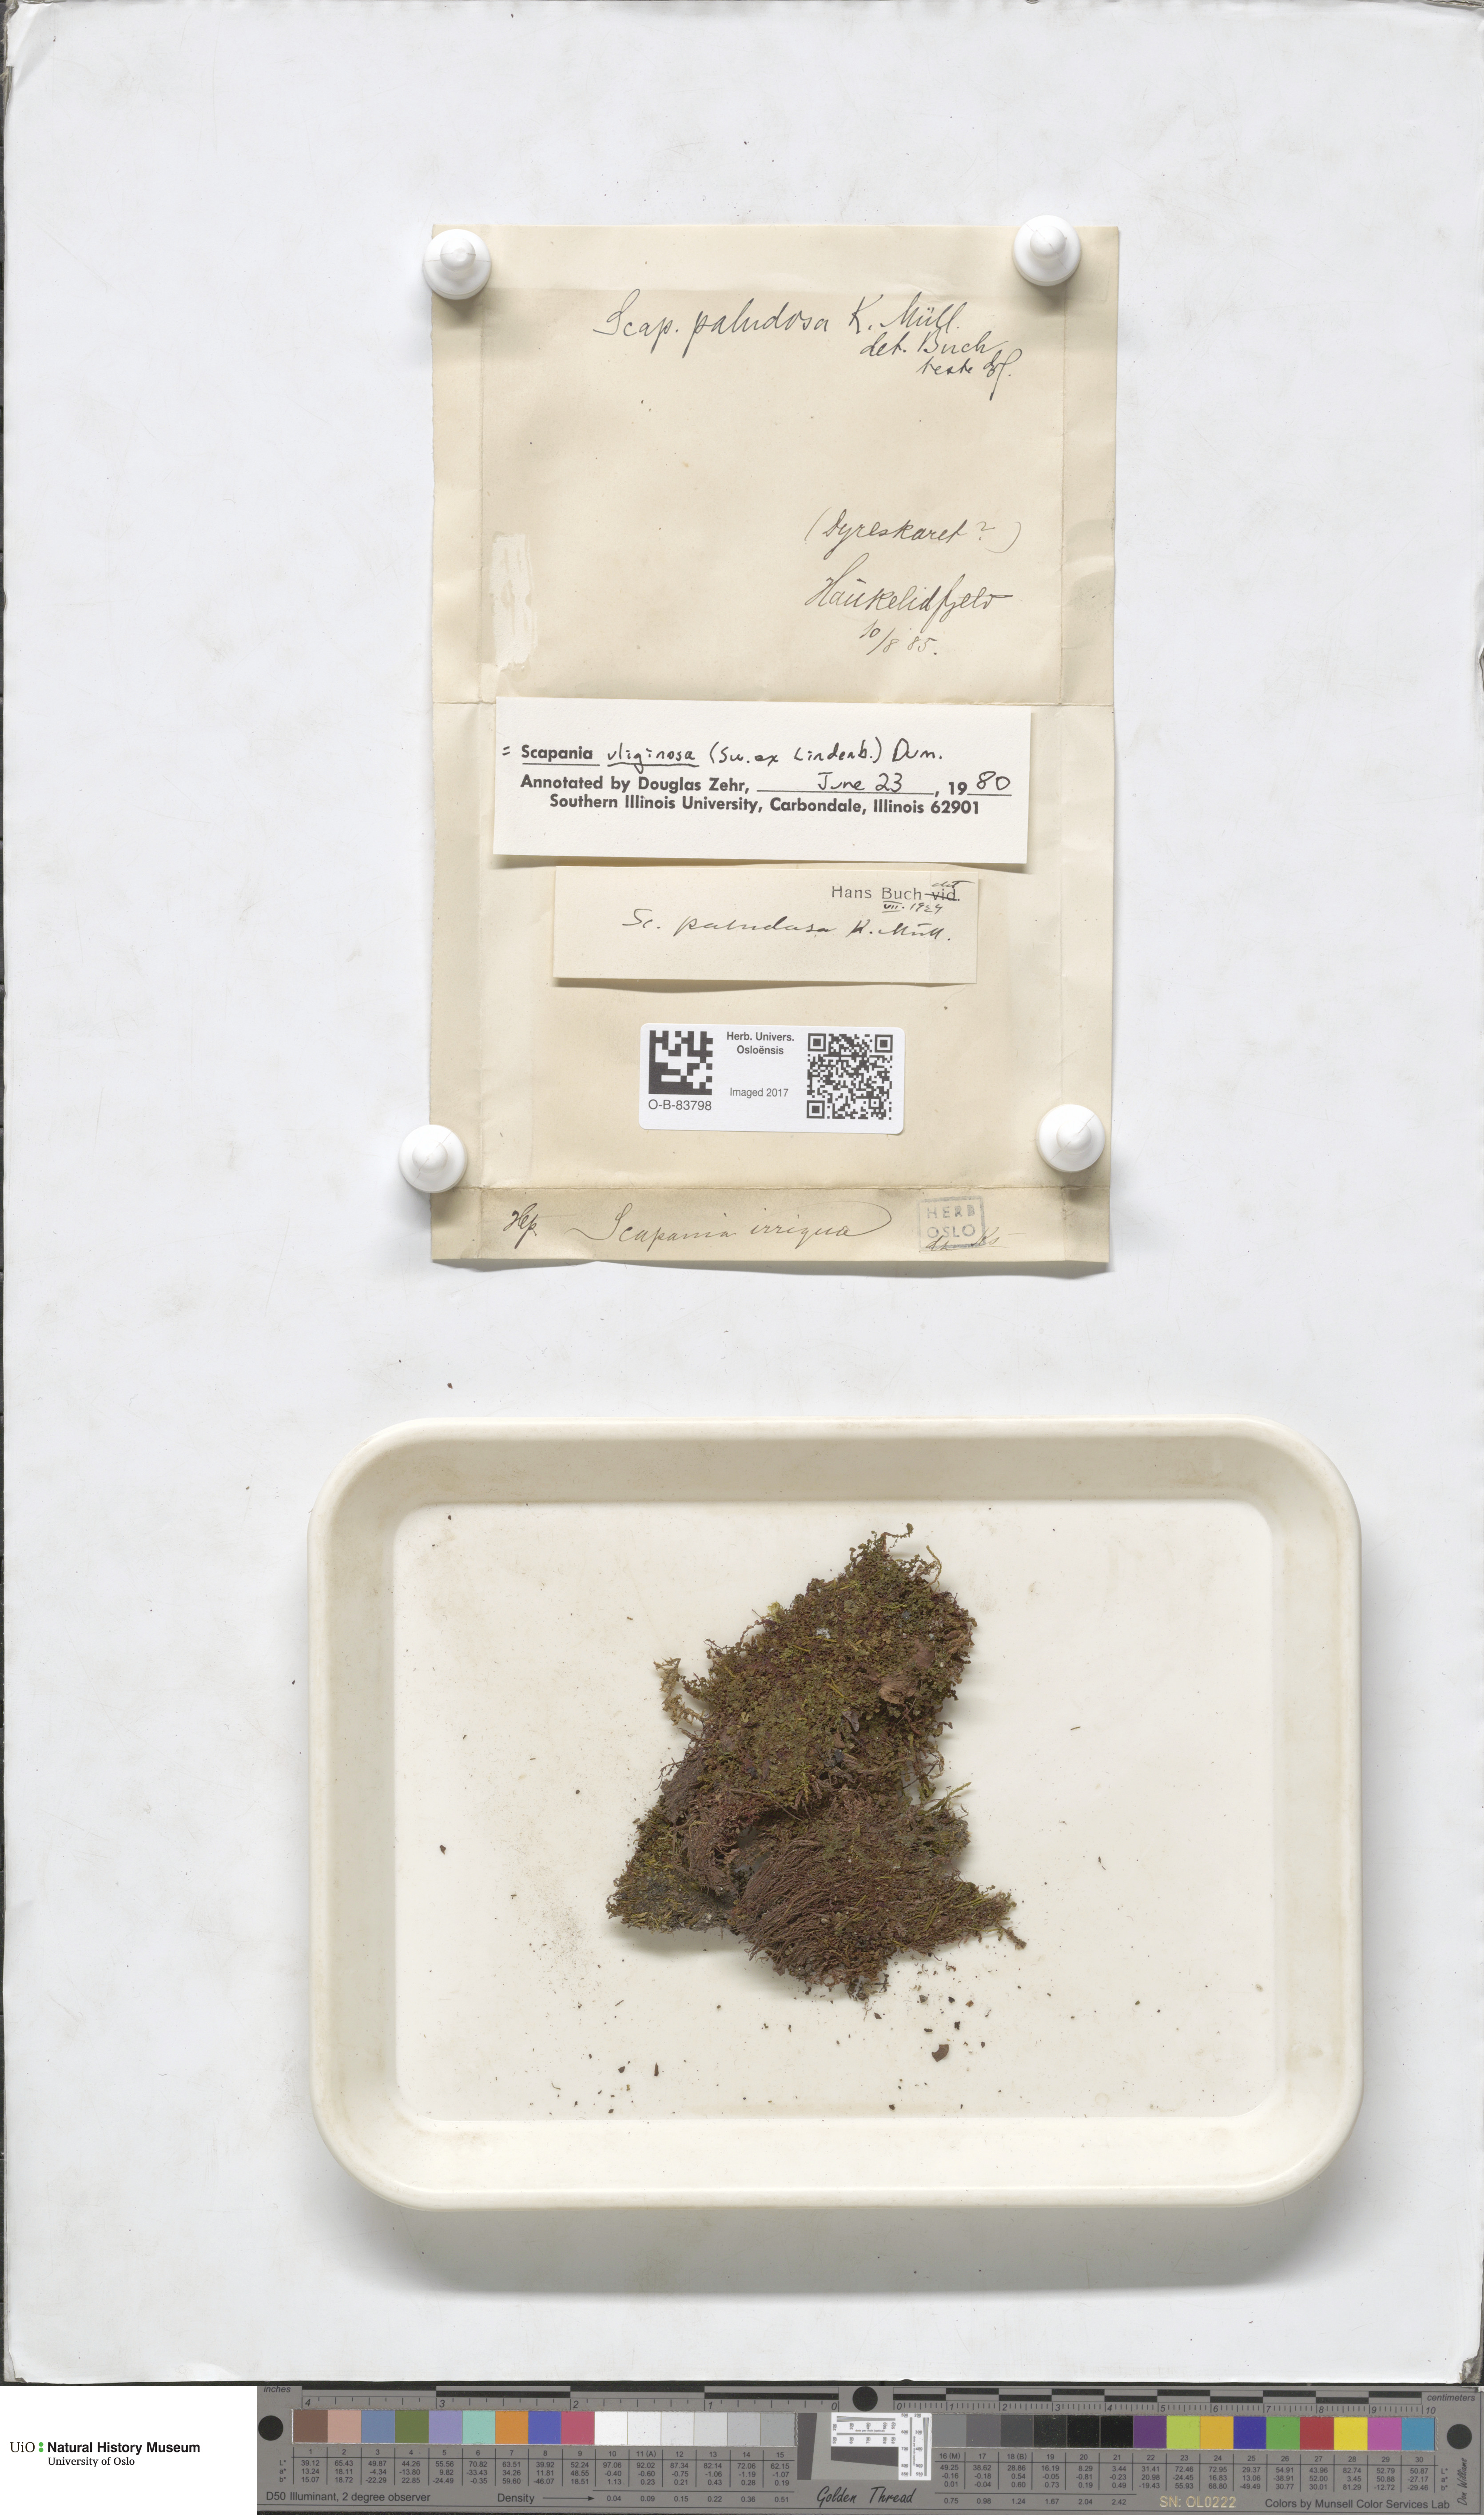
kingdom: Plantae
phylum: Marchantiophyta
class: Jungermanniopsida
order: Jungermanniales
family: Scapaniaceae
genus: Scapania
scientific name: Scapania uliginosa
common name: Marsh earwort
